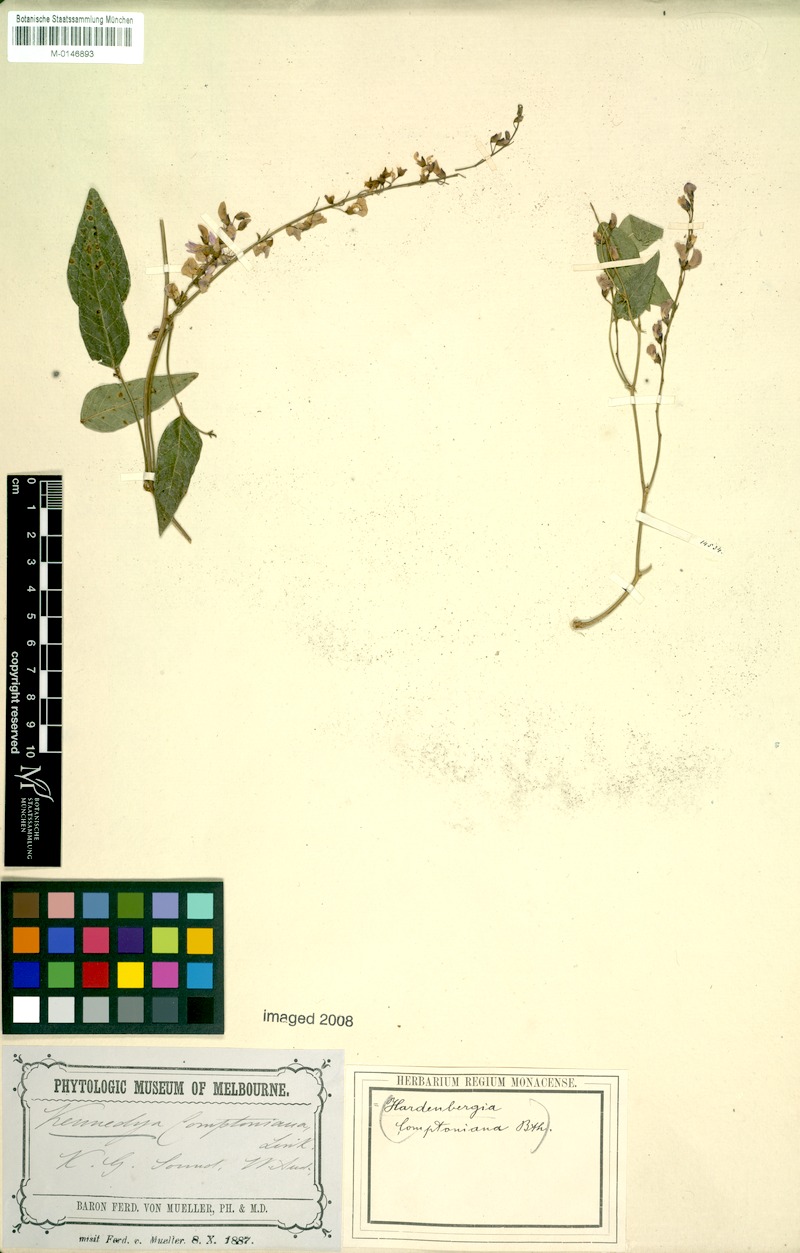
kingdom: Plantae
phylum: Tracheophyta
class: Magnoliopsida
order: Fabales
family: Fabaceae
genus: Hardenbergia
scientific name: Hardenbergia comptoniana
